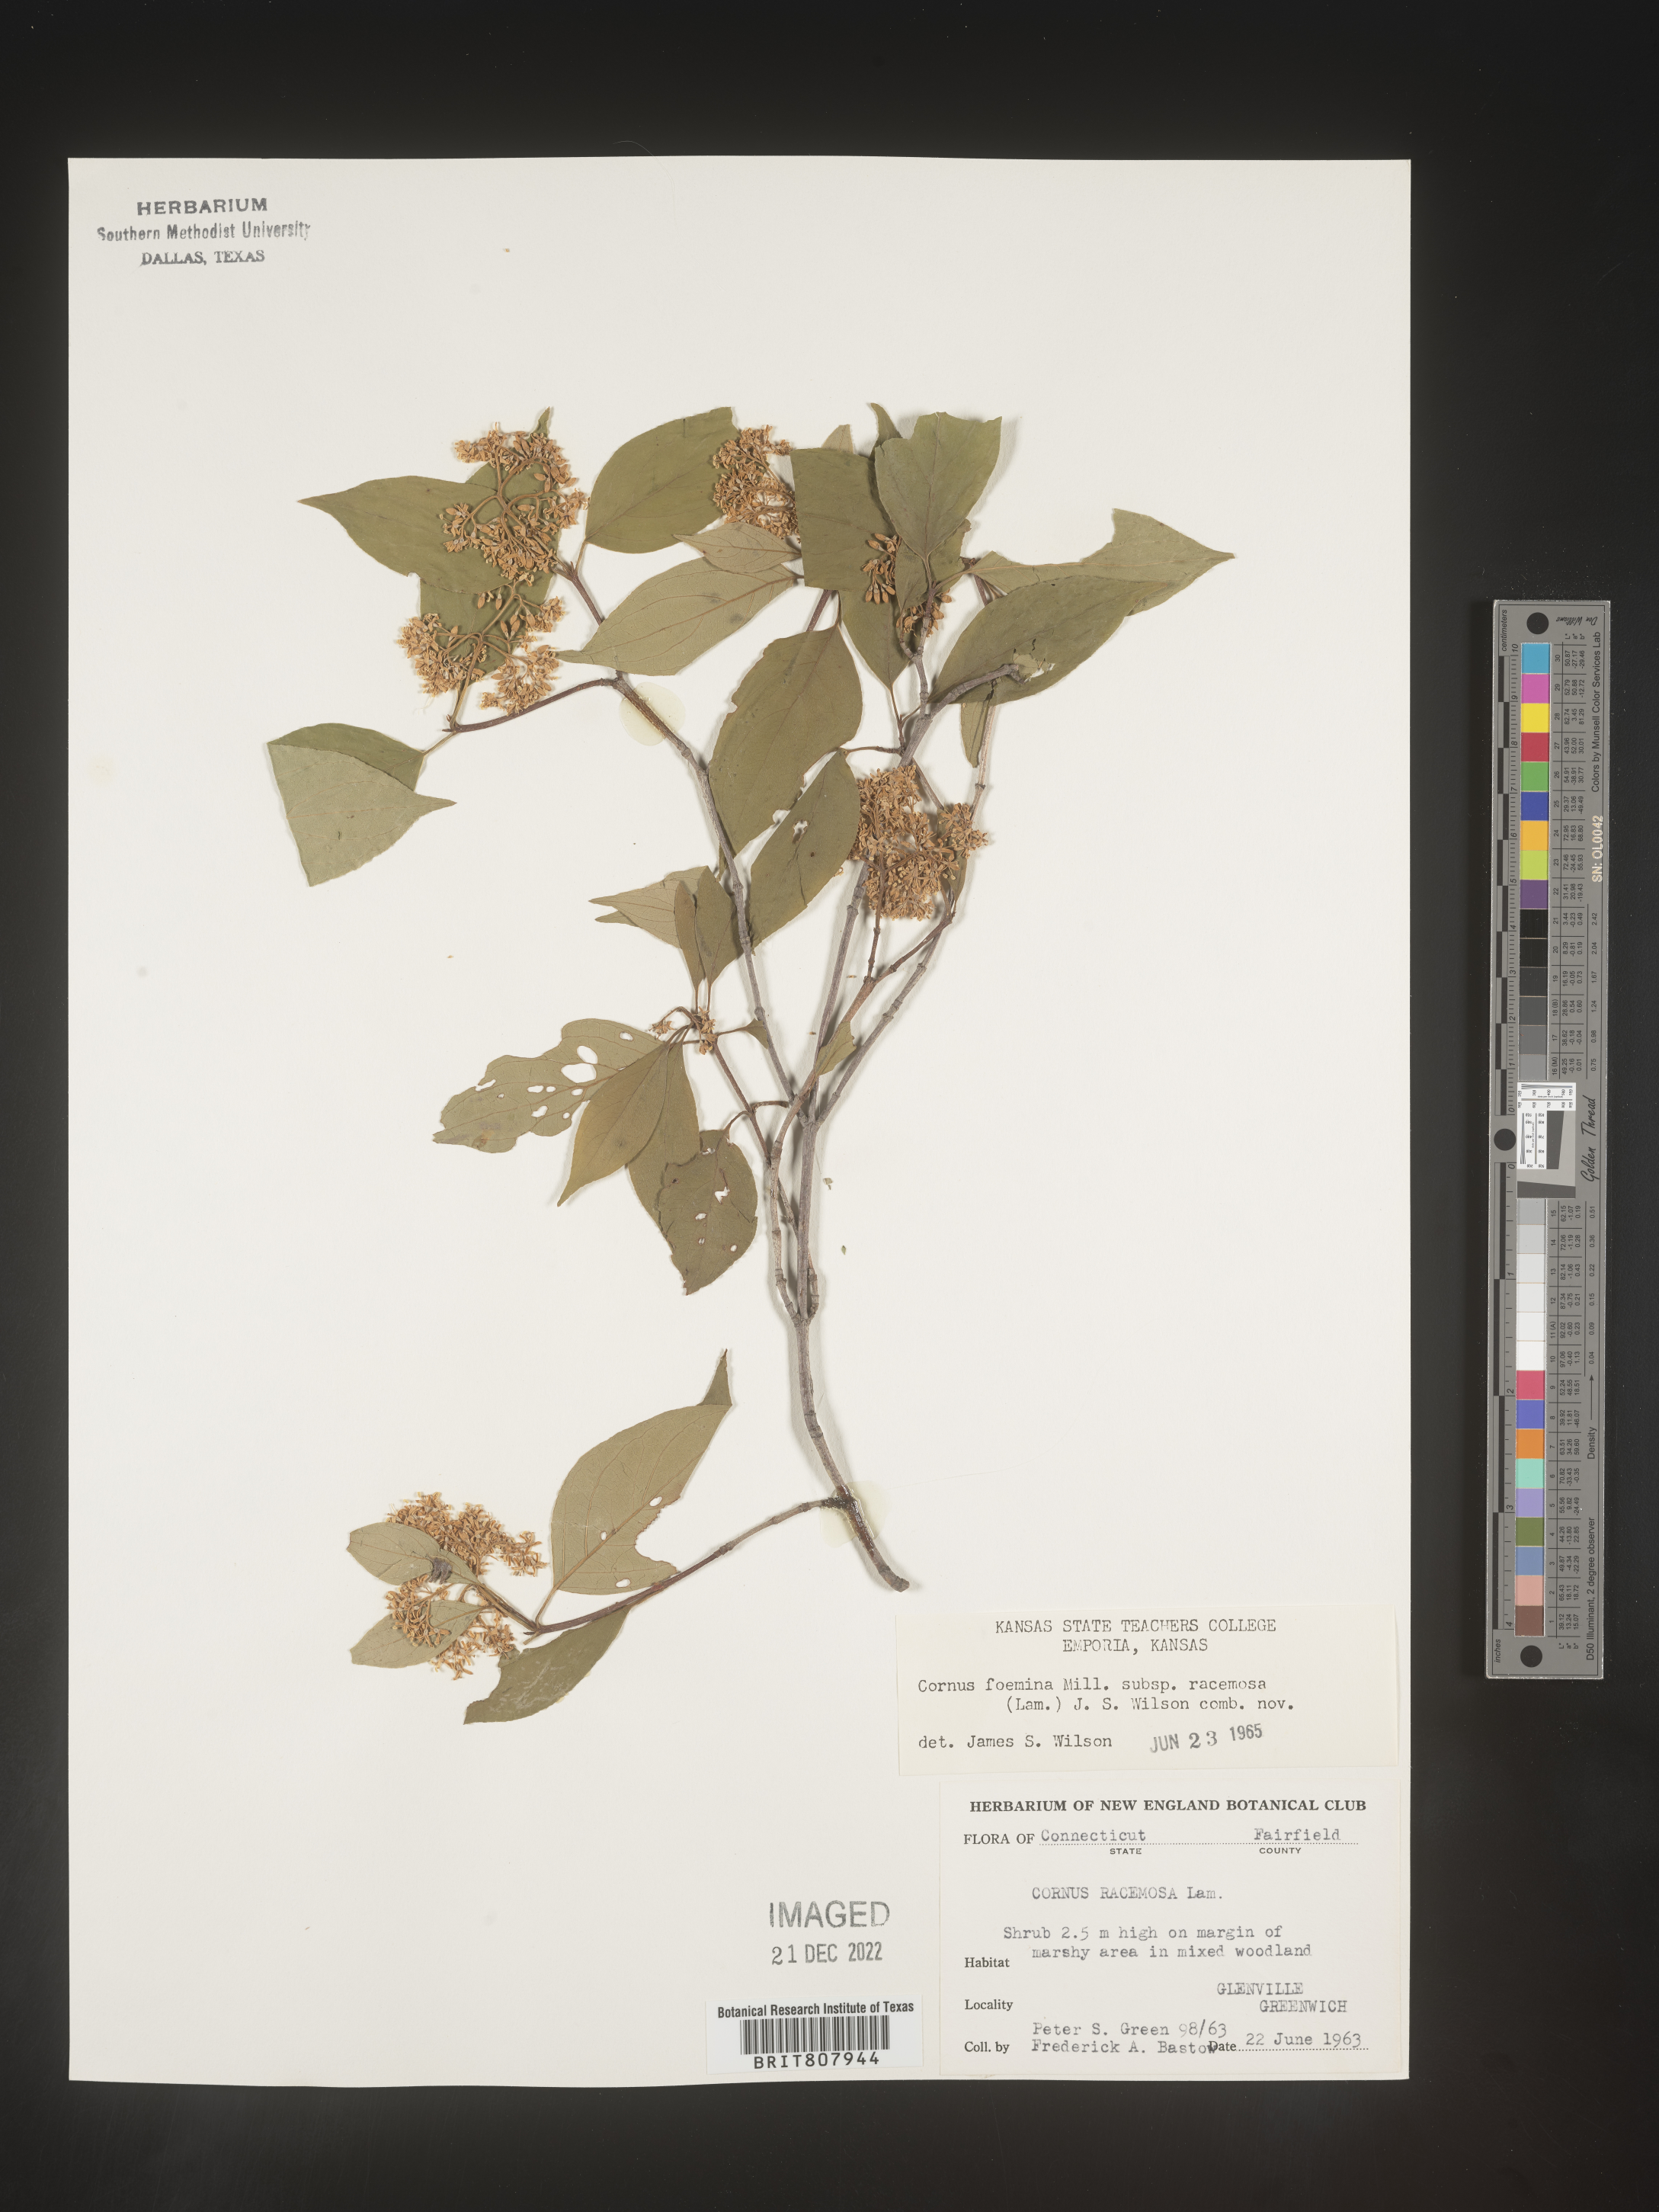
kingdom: Plantae
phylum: Tracheophyta
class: Magnoliopsida
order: Cornales
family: Cornaceae
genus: Cornus
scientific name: Cornus racemosa
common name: Panicled dogwood
